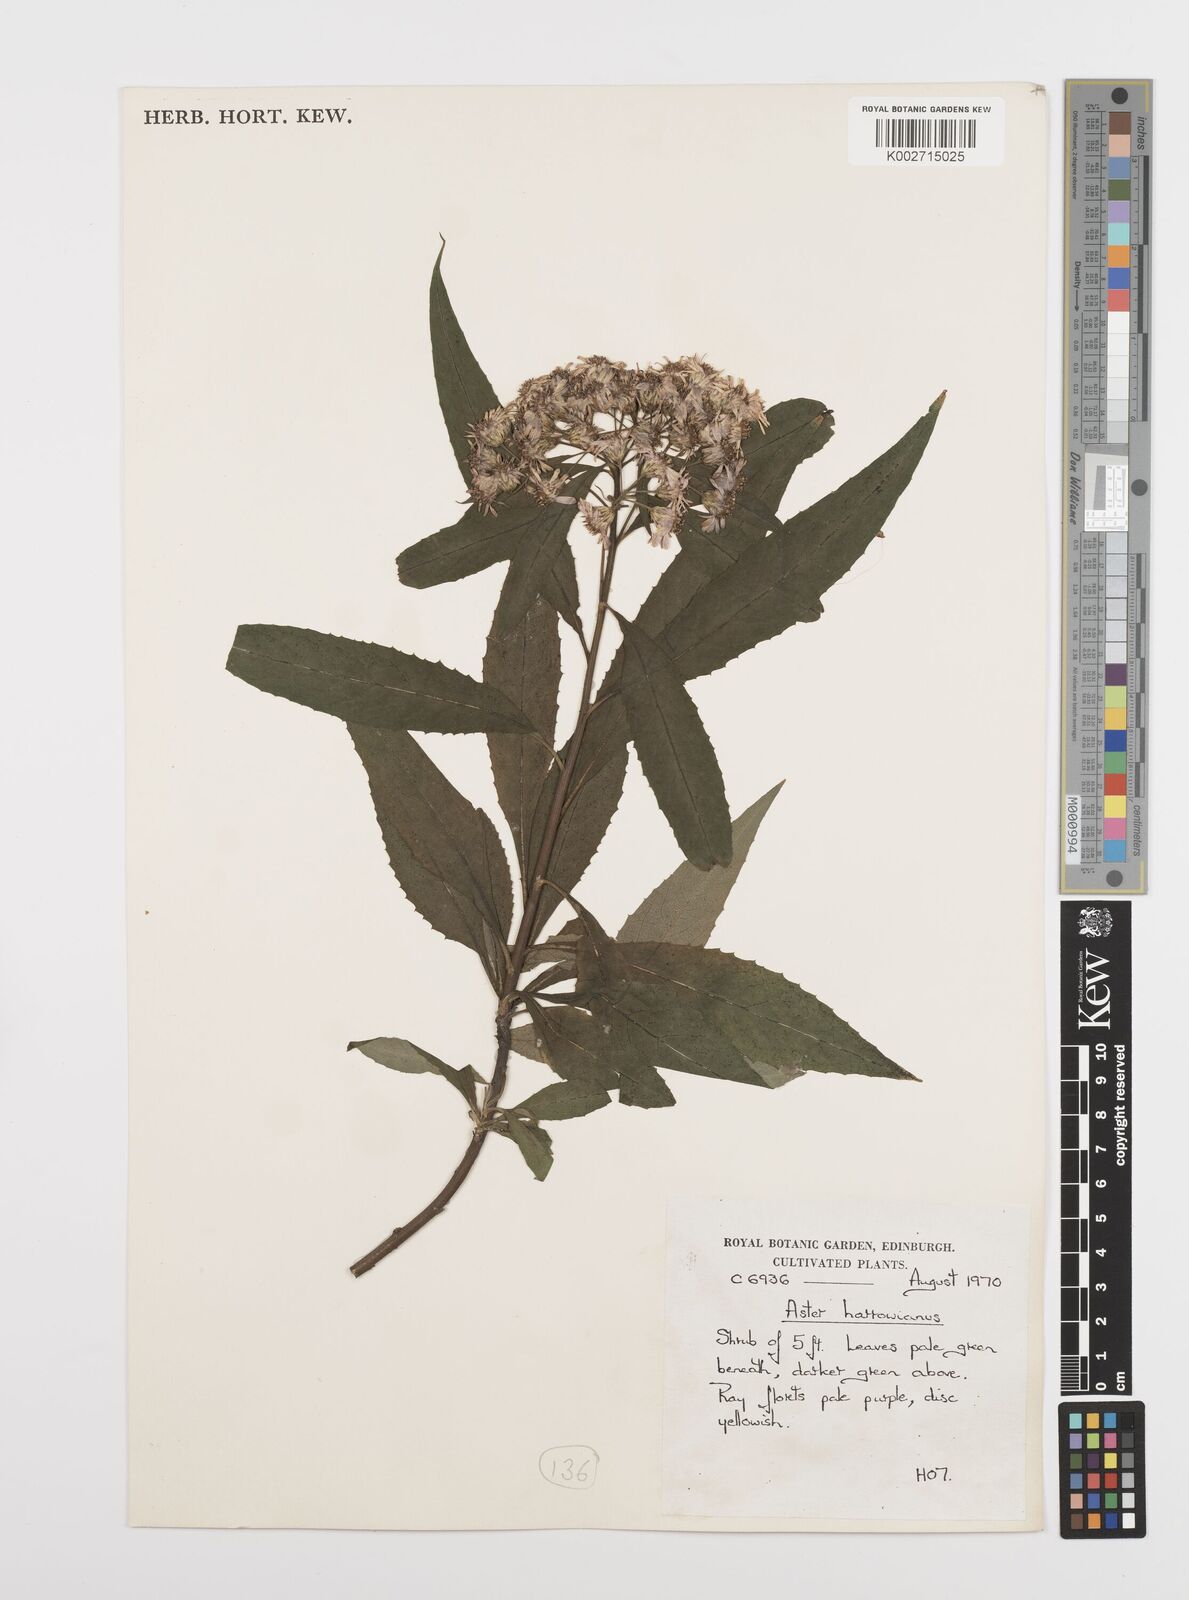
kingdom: Plantae
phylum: Tracheophyta
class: Magnoliopsida
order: Asterales
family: Asteraceae
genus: Sinosidus
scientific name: Sinosidus albescens
